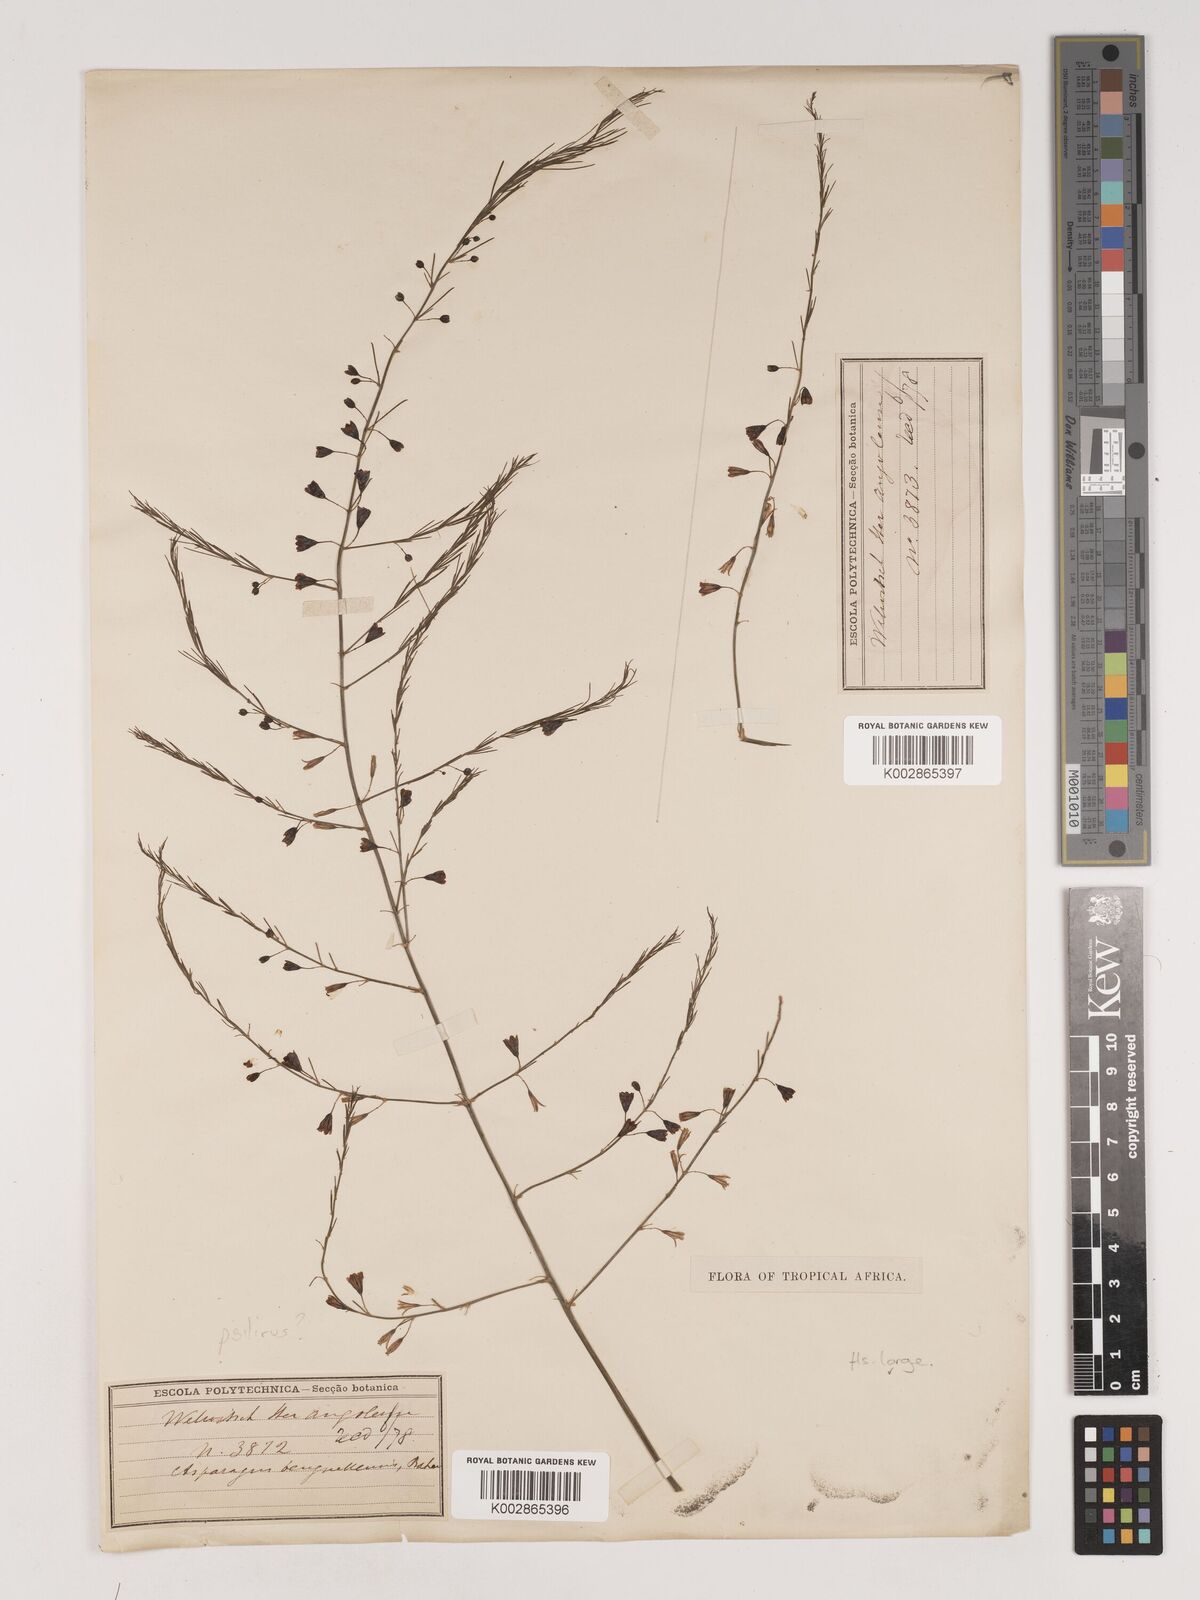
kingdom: Plantae
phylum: Tracheophyta
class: Liliopsida
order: Asparagales
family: Asparagaceae
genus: Asparagus
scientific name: Asparagus benguellensis
